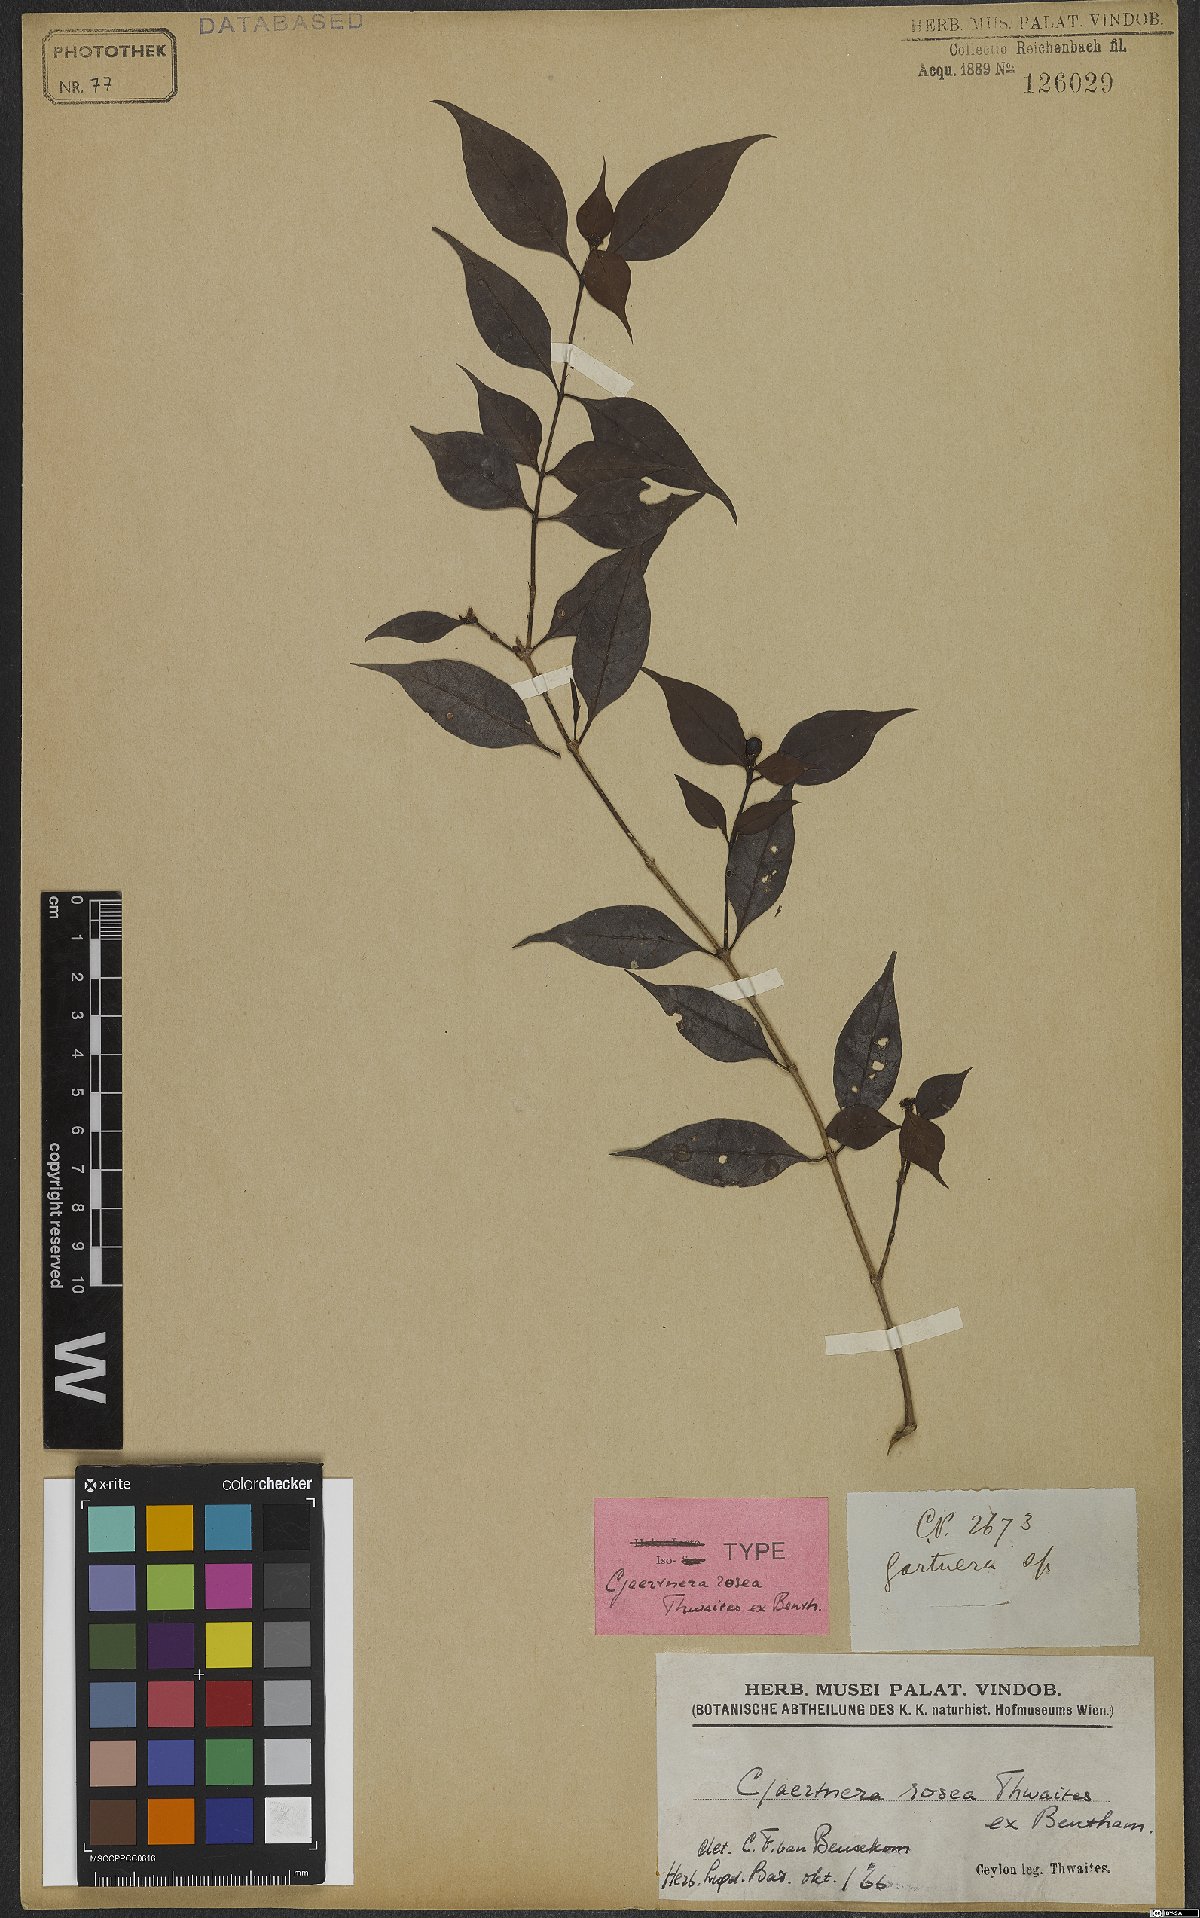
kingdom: Plantae
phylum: Tracheophyta
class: Magnoliopsida
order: Gentianales
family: Rubiaceae
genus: Gaertnera
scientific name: Gaertnera rosea
